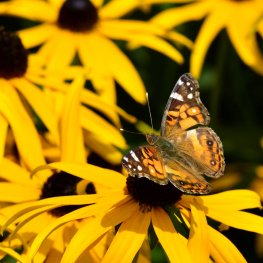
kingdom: Animalia
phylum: Arthropoda
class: Insecta
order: Lepidoptera
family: Nymphalidae
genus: Vanessa
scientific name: Vanessa virginiensis
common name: American Lady
